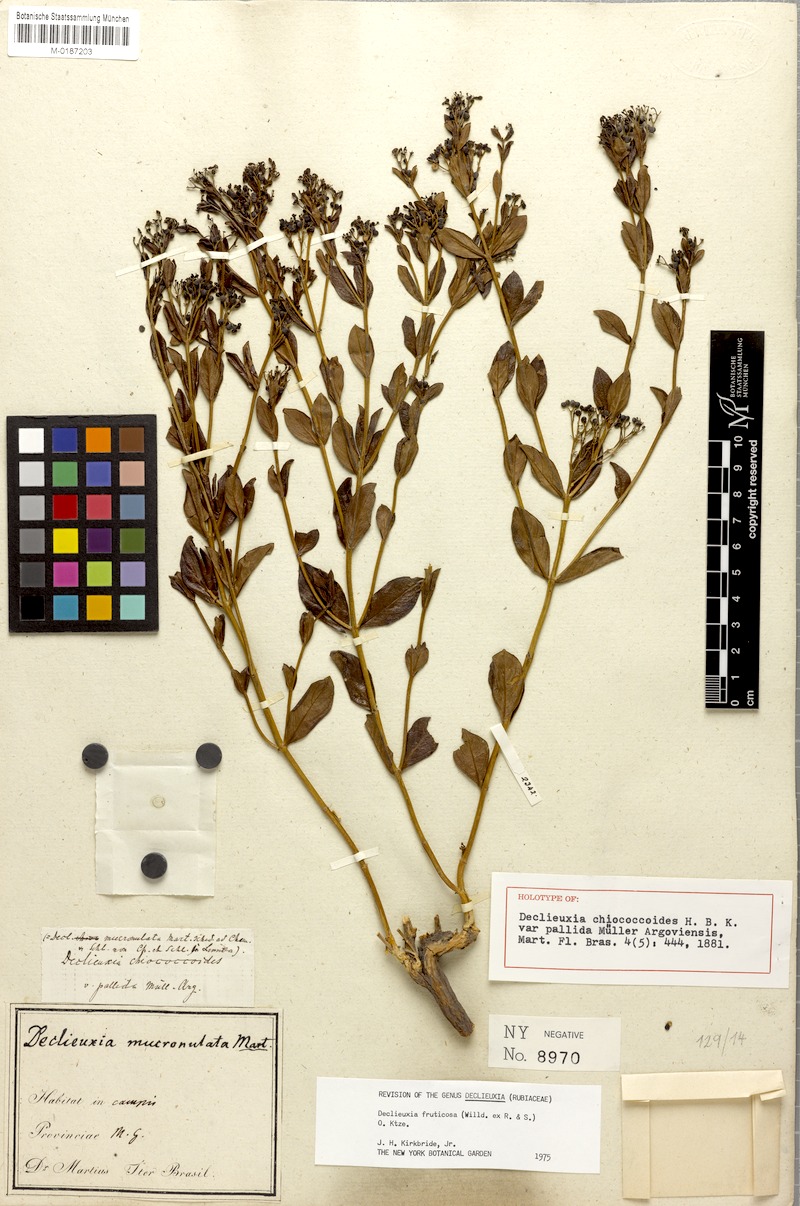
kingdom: Plantae
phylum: Tracheophyta
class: Magnoliopsida
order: Gentianales
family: Rubiaceae
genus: Declieuxia
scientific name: Declieuxia fruticosa
